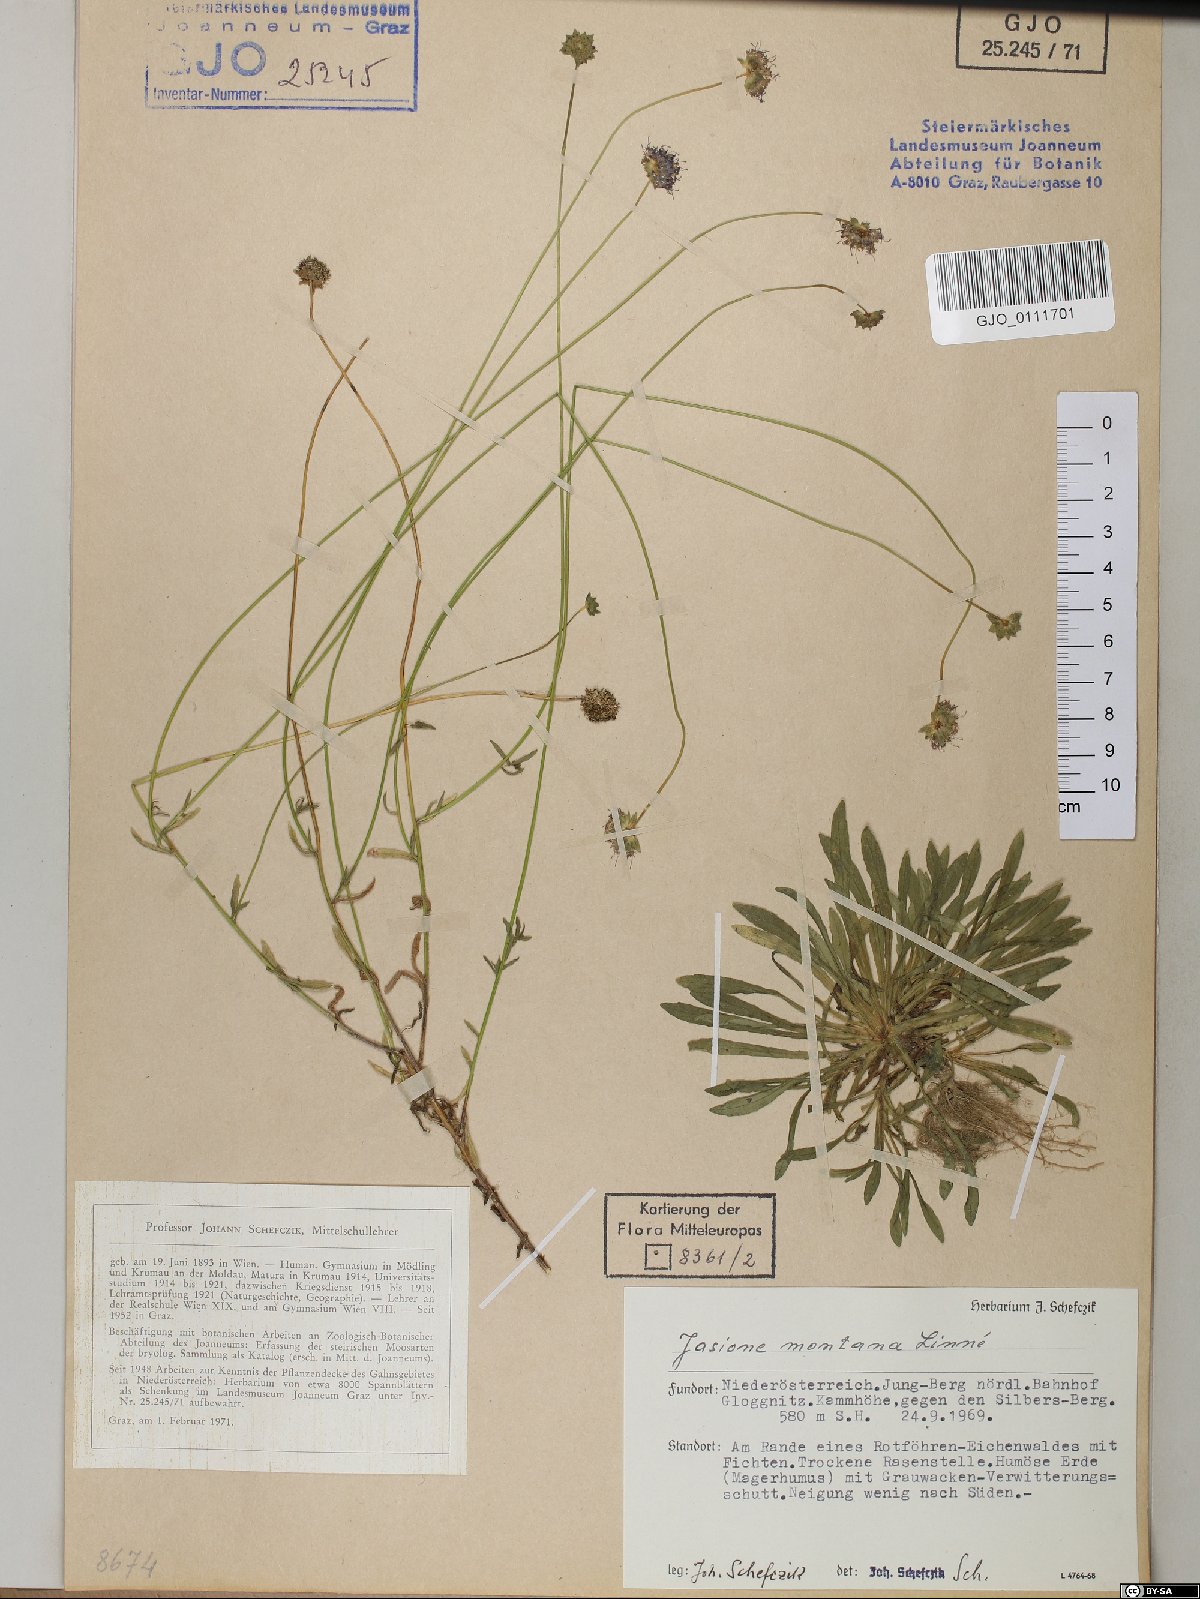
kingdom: Plantae
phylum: Tracheophyta
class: Magnoliopsida
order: Asterales
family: Campanulaceae
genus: Jasione
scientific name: Jasione montana
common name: Sheep's-bit
